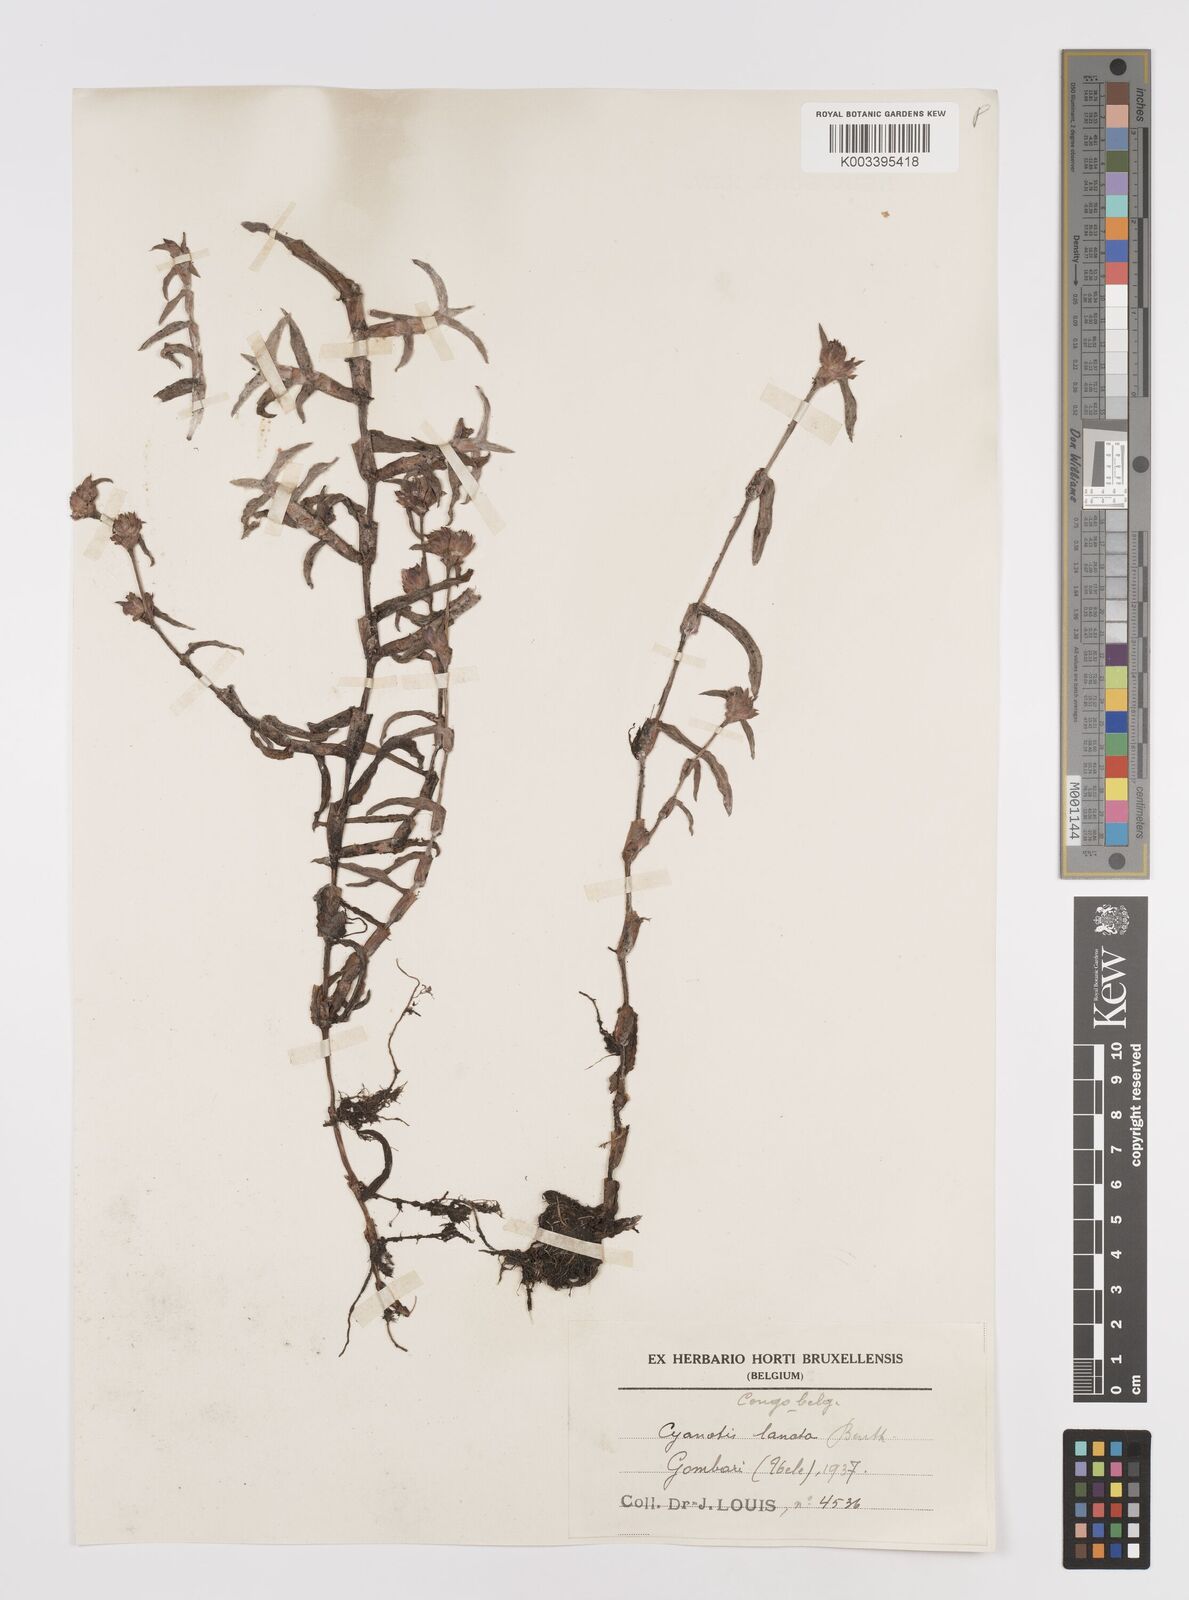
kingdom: Plantae
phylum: Tracheophyta
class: Liliopsida
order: Commelinales
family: Commelinaceae
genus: Cyanotis
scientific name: Cyanotis lanata
